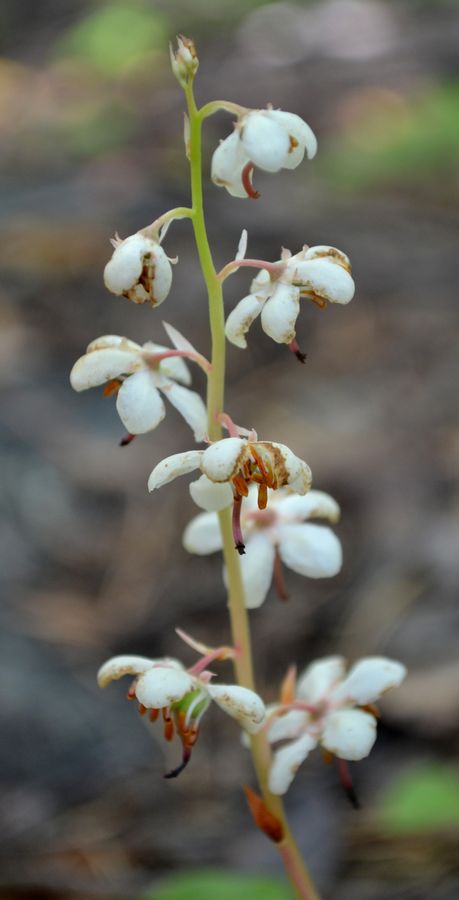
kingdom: Plantae
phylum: Tracheophyta
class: Magnoliopsida
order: Ericales
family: Ericaceae
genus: Pyrola
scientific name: Pyrola rotundifolia
